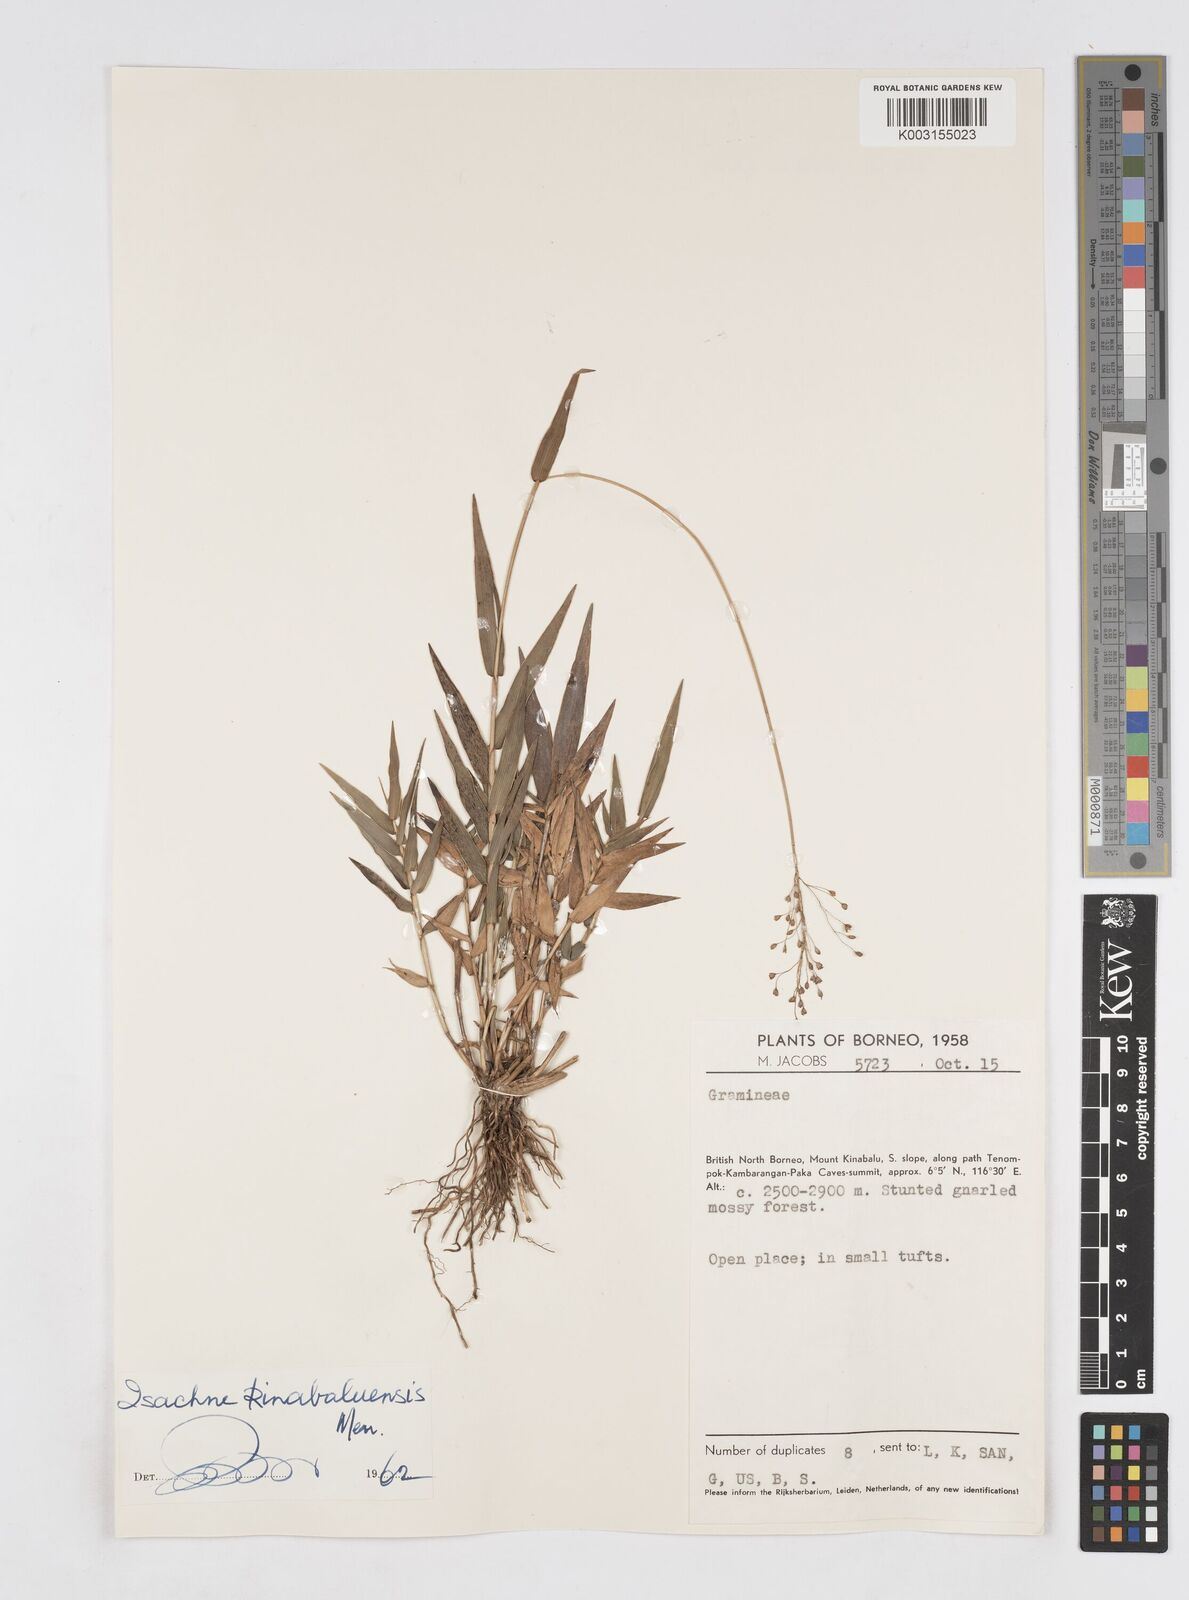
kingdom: Plantae
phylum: Tracheophyta
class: Liliopsida
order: Poales
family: Poaceae
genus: Isachne
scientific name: Isachne kinabaluensis
